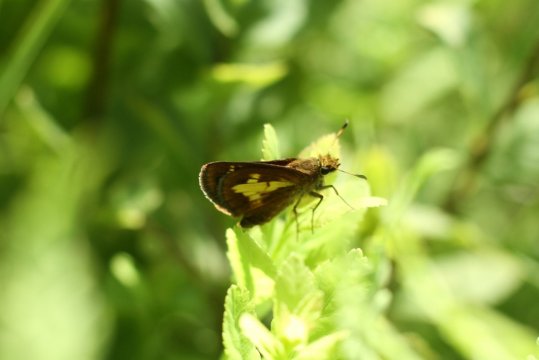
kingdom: Animalia
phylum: Arthropoda
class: Insecta
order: Lepidoptera
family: Hesperiidae
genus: Poanes
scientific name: Poanes massasoit
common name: Mulberry Wing
